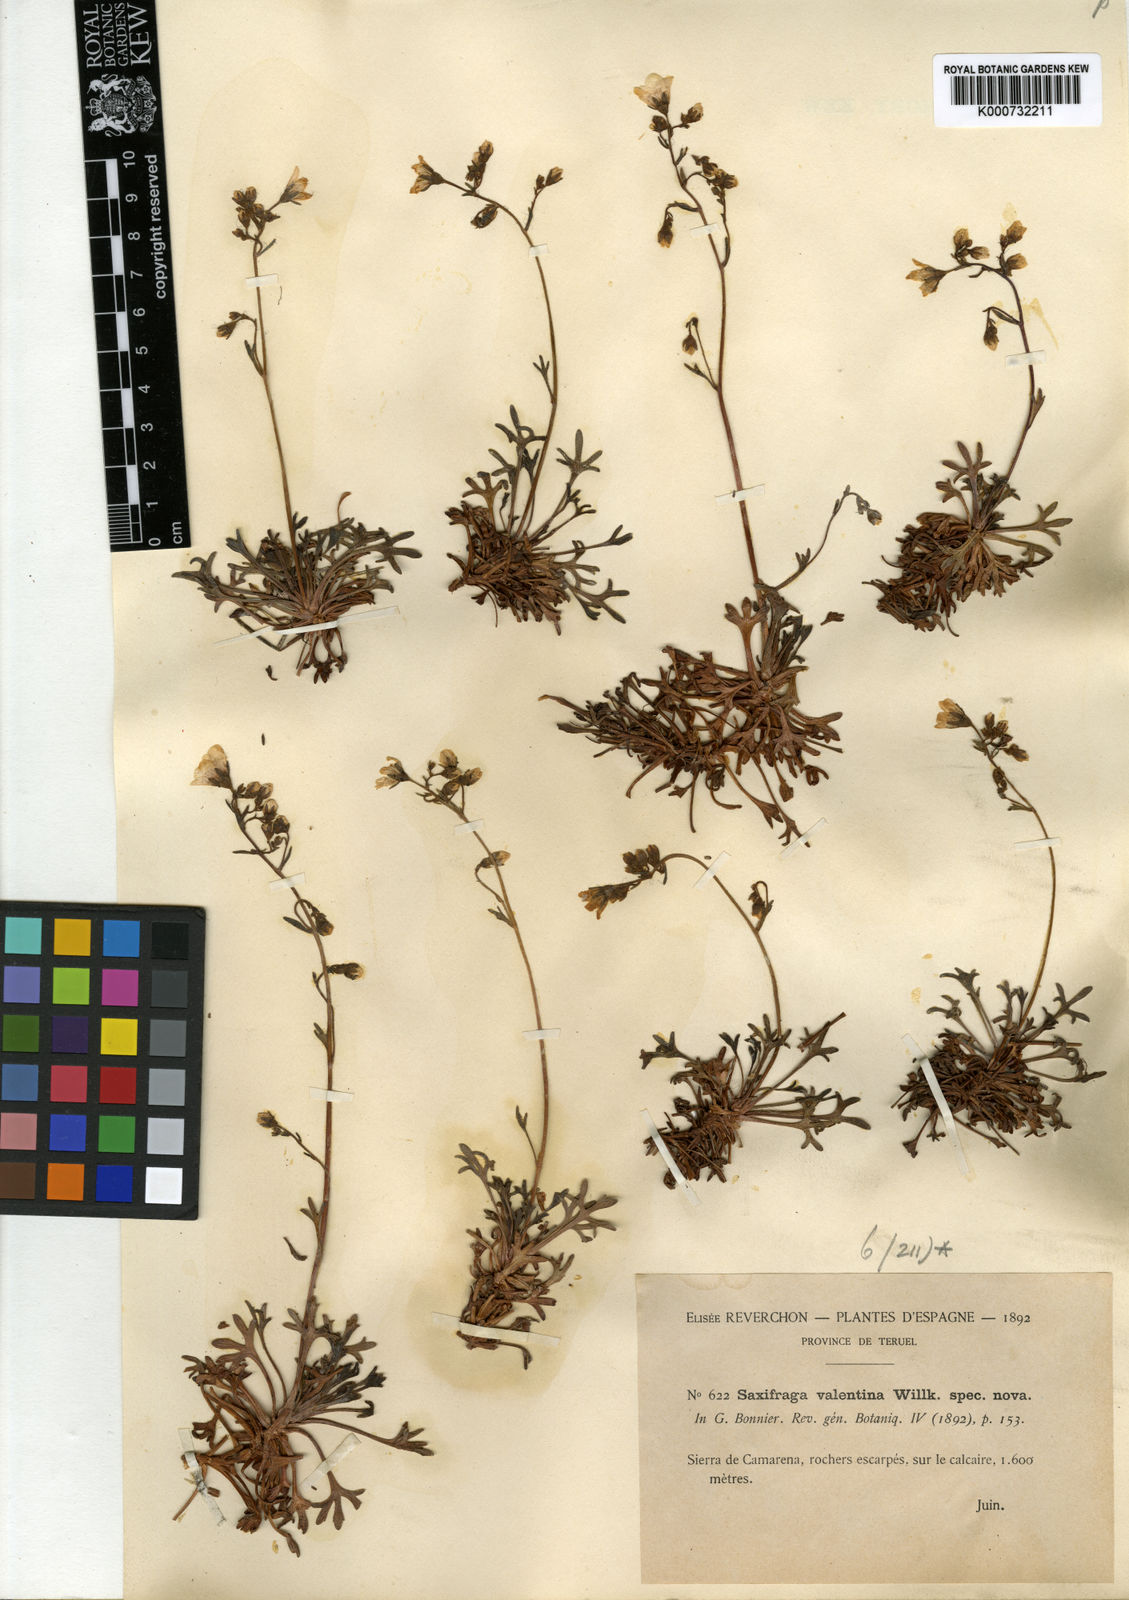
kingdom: Plantae
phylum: Tracheophyta
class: Magnoliopsida
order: Saxifragales
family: Saxifragaceae
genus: Saxifraga
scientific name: Saxifraga cuneata
